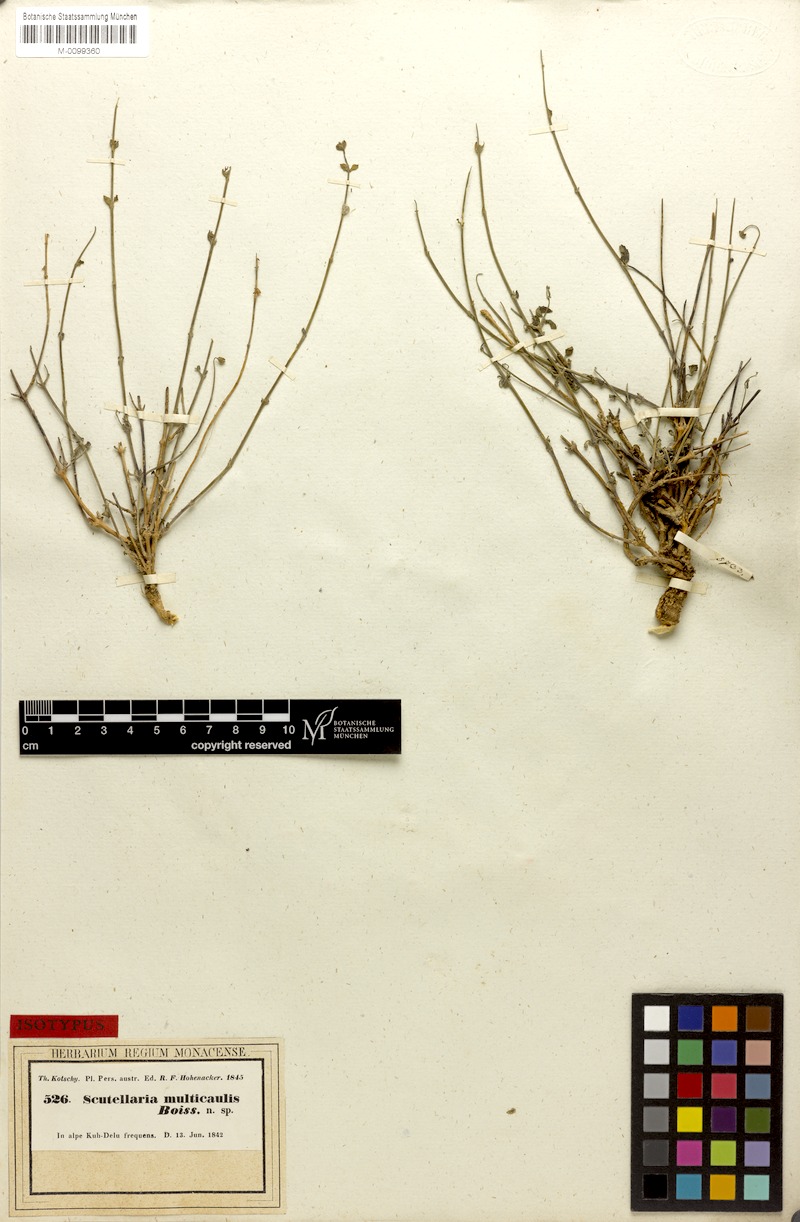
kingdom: Plantae
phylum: Tracheophyta
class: Magnoliopsida
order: Lamiales
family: Lamiaceae
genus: Scutellaria
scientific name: Scutellaria multicaulis
